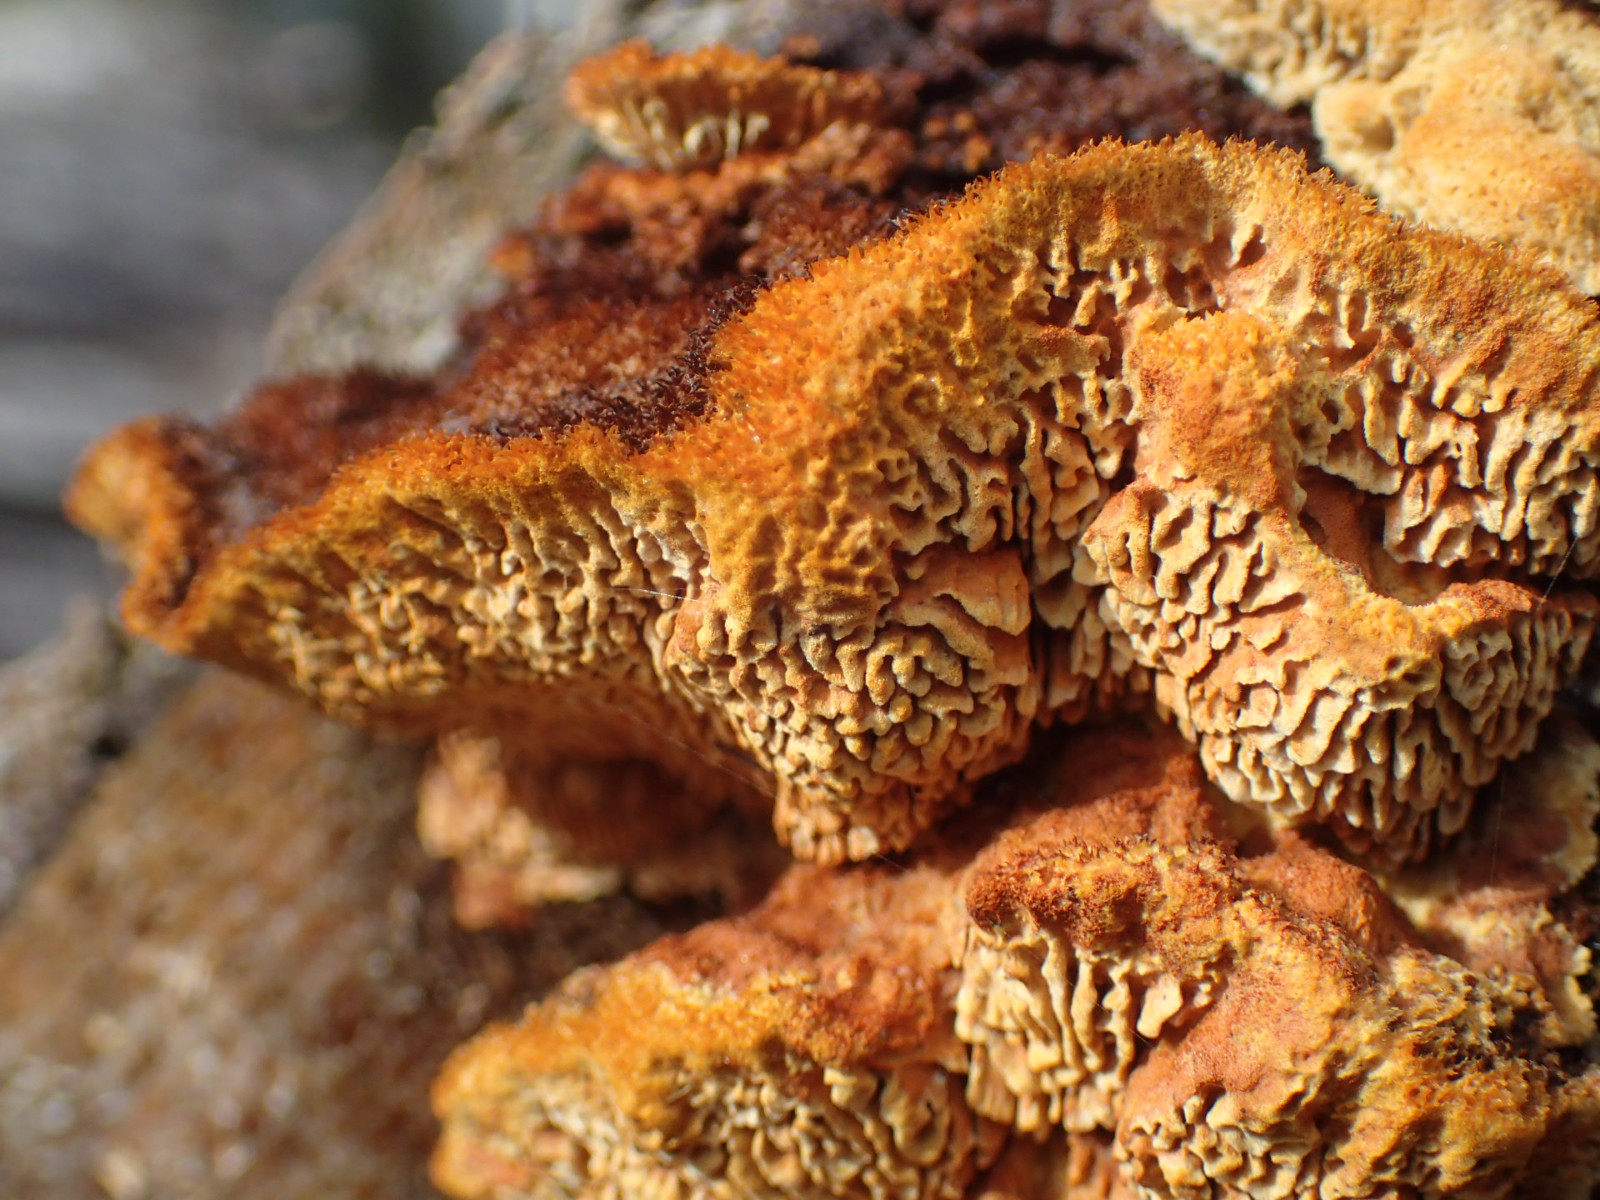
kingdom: Fungi
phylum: Basidiomycota
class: Agaricomycetes
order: Gloeophyllales
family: Gloeophyllaceae
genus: Gloeophyllum
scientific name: Gloeophyllum sepiarium
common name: fyrre-korkhat
